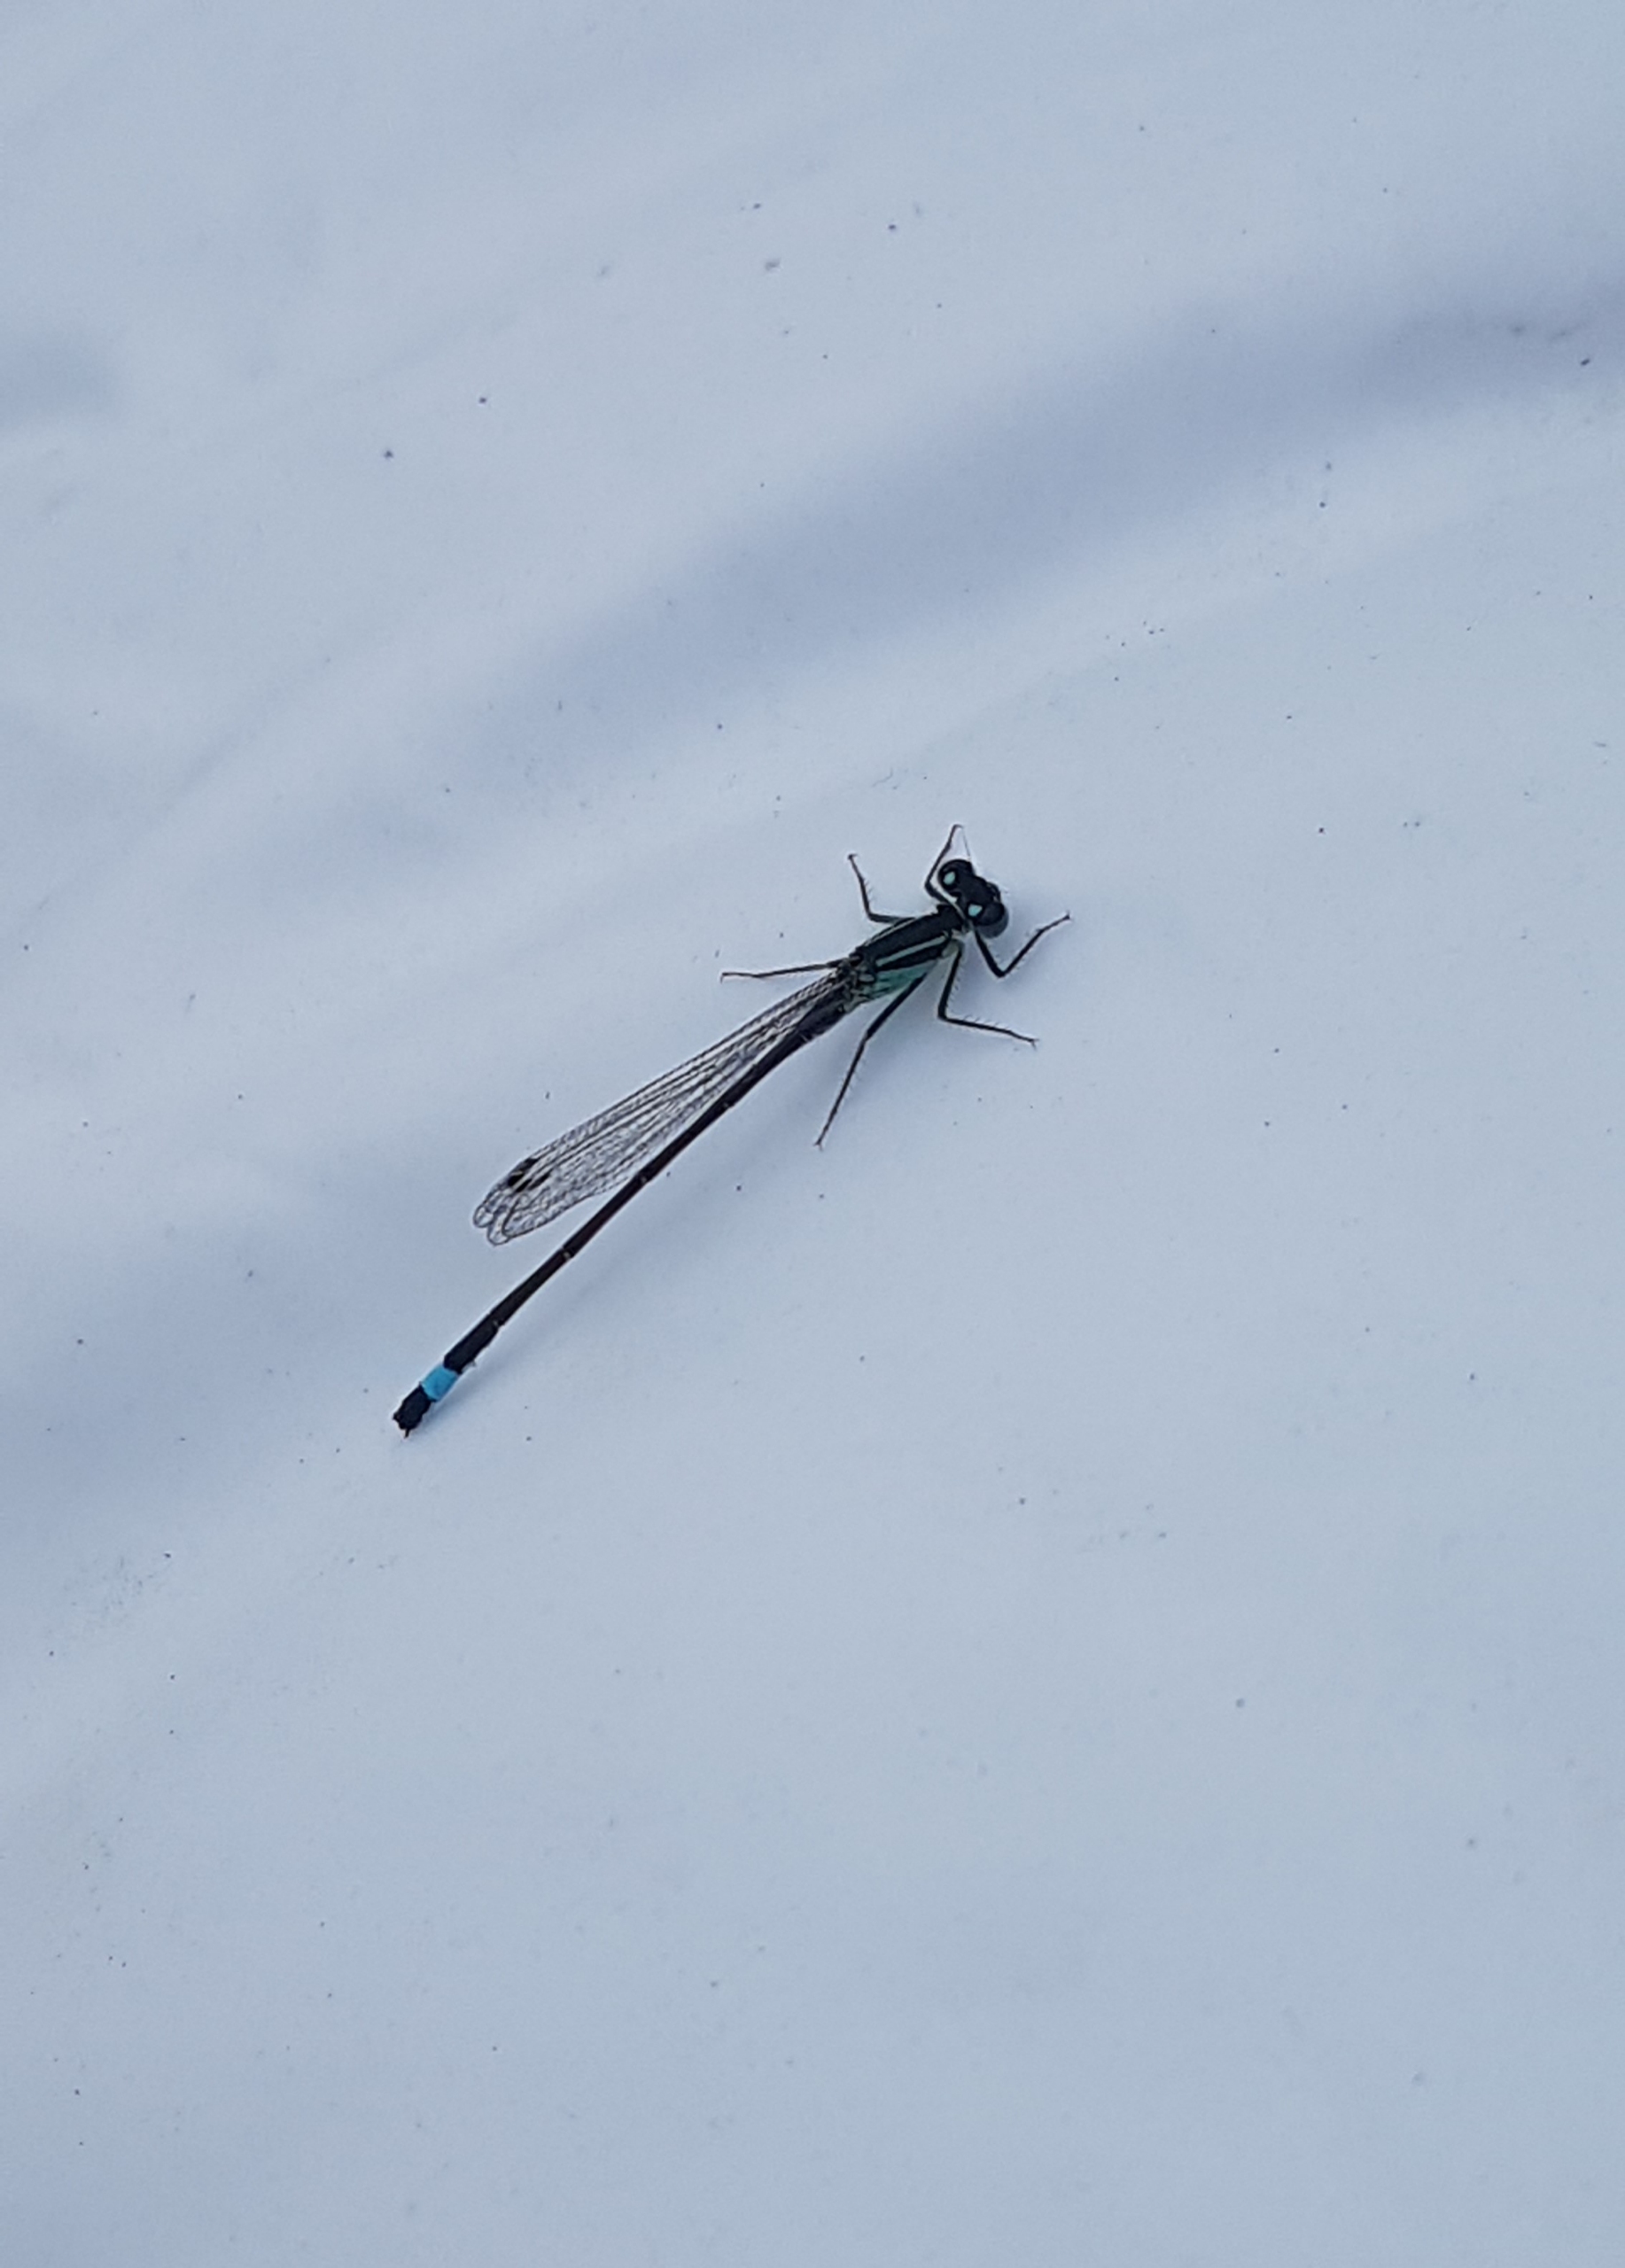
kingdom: Animalia
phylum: Arthropoda
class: Insecta
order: Odonata
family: Coenagrionidae
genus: Ischnura
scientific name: Ischnura elegans
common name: Stor farvevandnymfe
